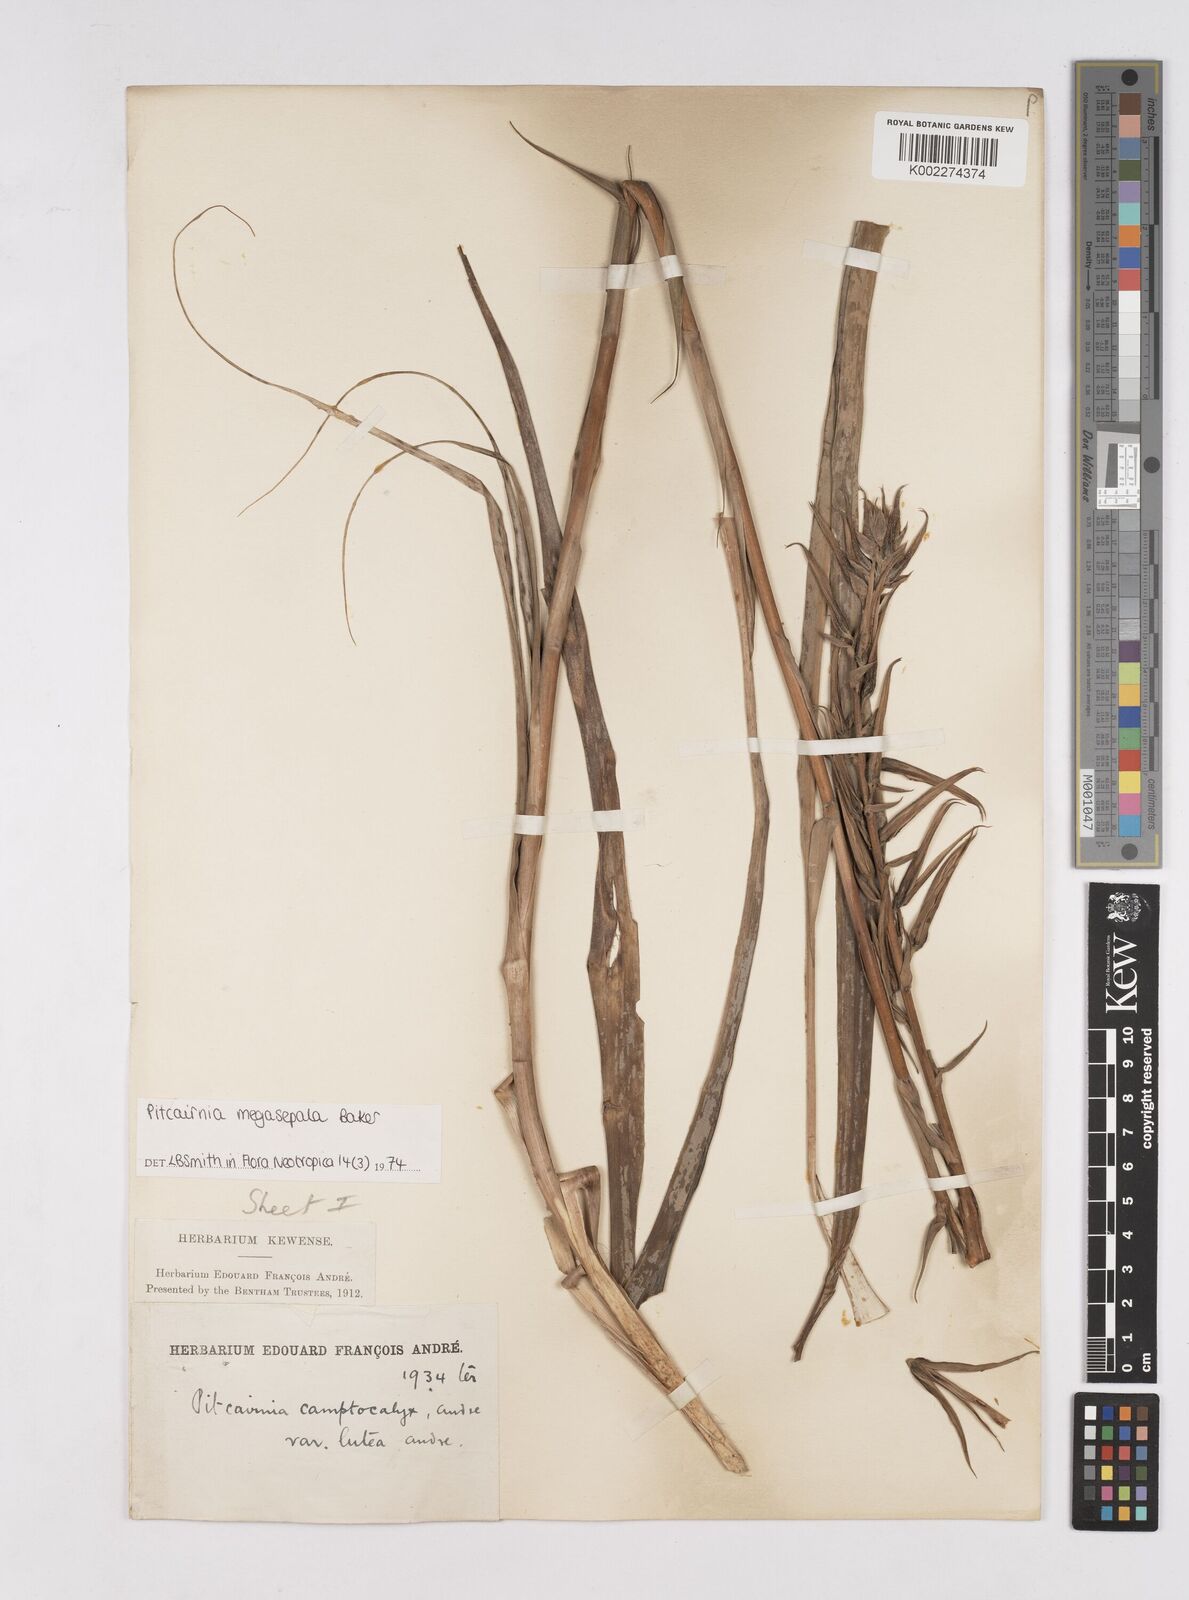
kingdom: Plantae
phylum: Tracheophyta
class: Liliopsida
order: Poales
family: Bromeliaceae
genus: Pitcairnia
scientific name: Pitcairnia megasepala
